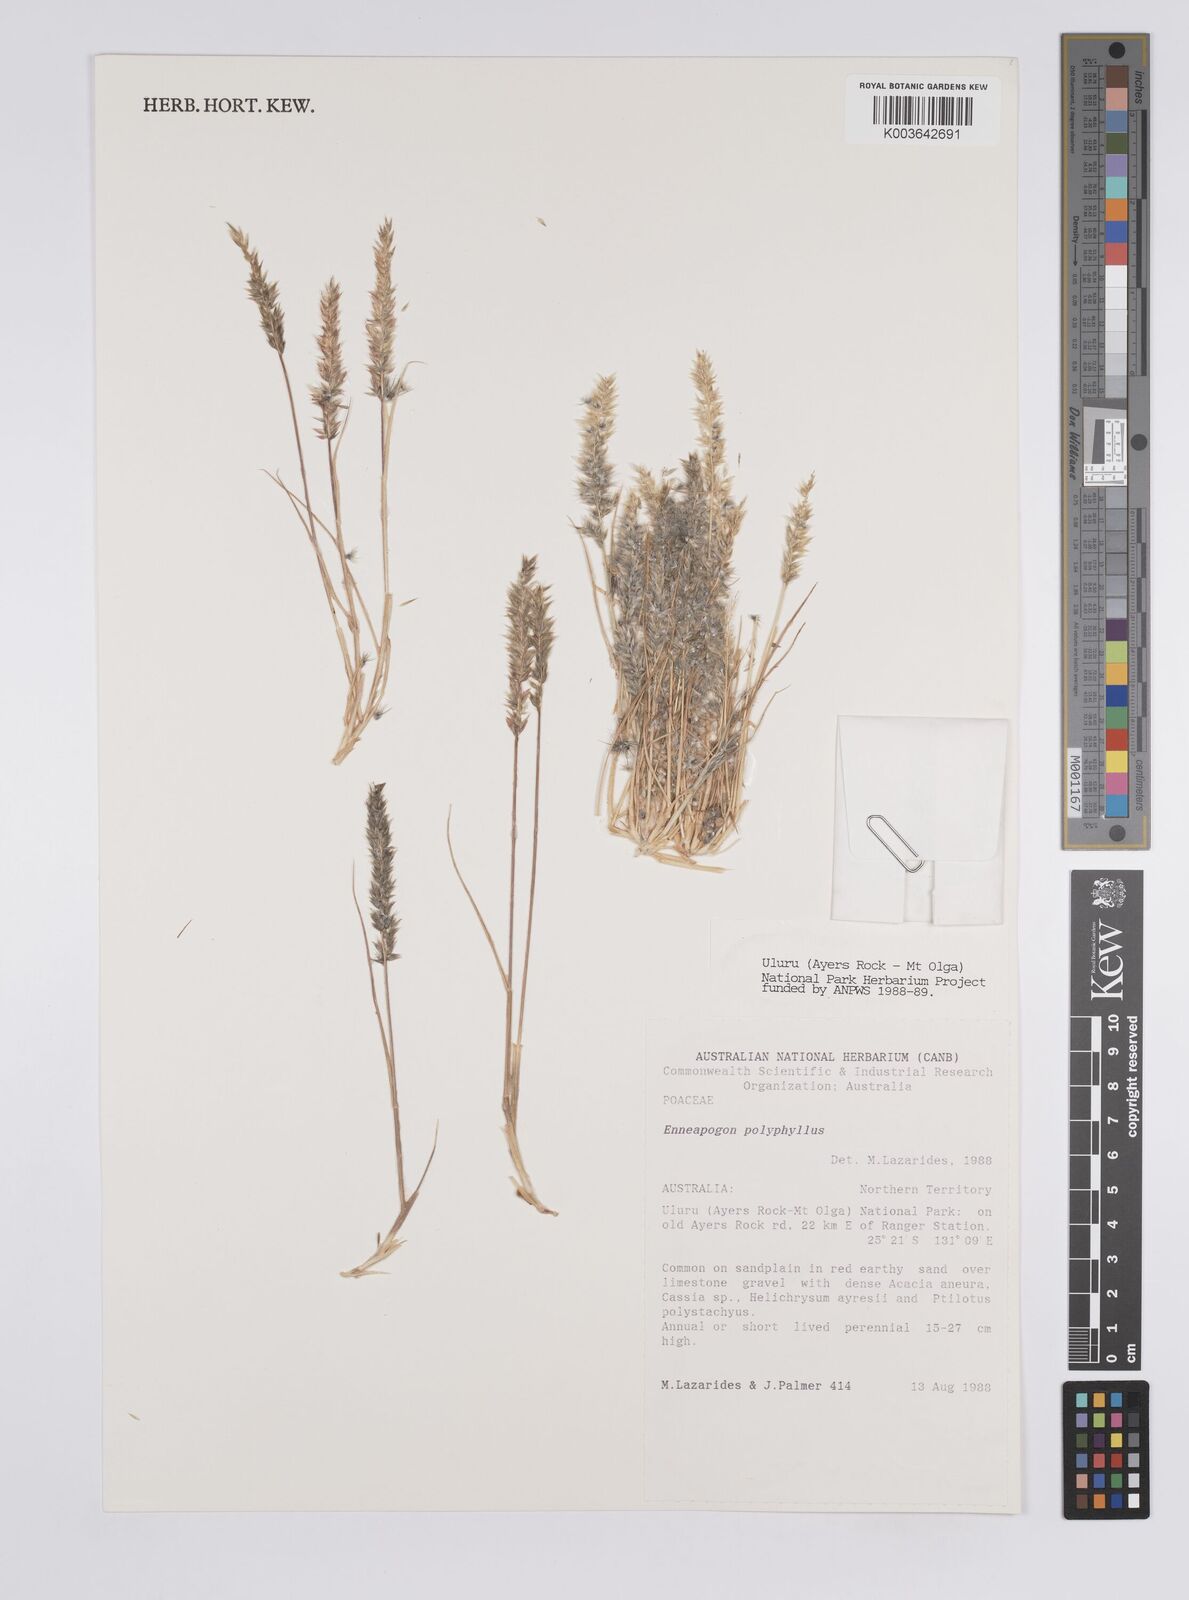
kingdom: Plantae
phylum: Tracheophyta
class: Liliopsida
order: Poales
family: Poaceae
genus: Enneapogon
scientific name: Enneapogon polyphyllus
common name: Leafy nineawn
